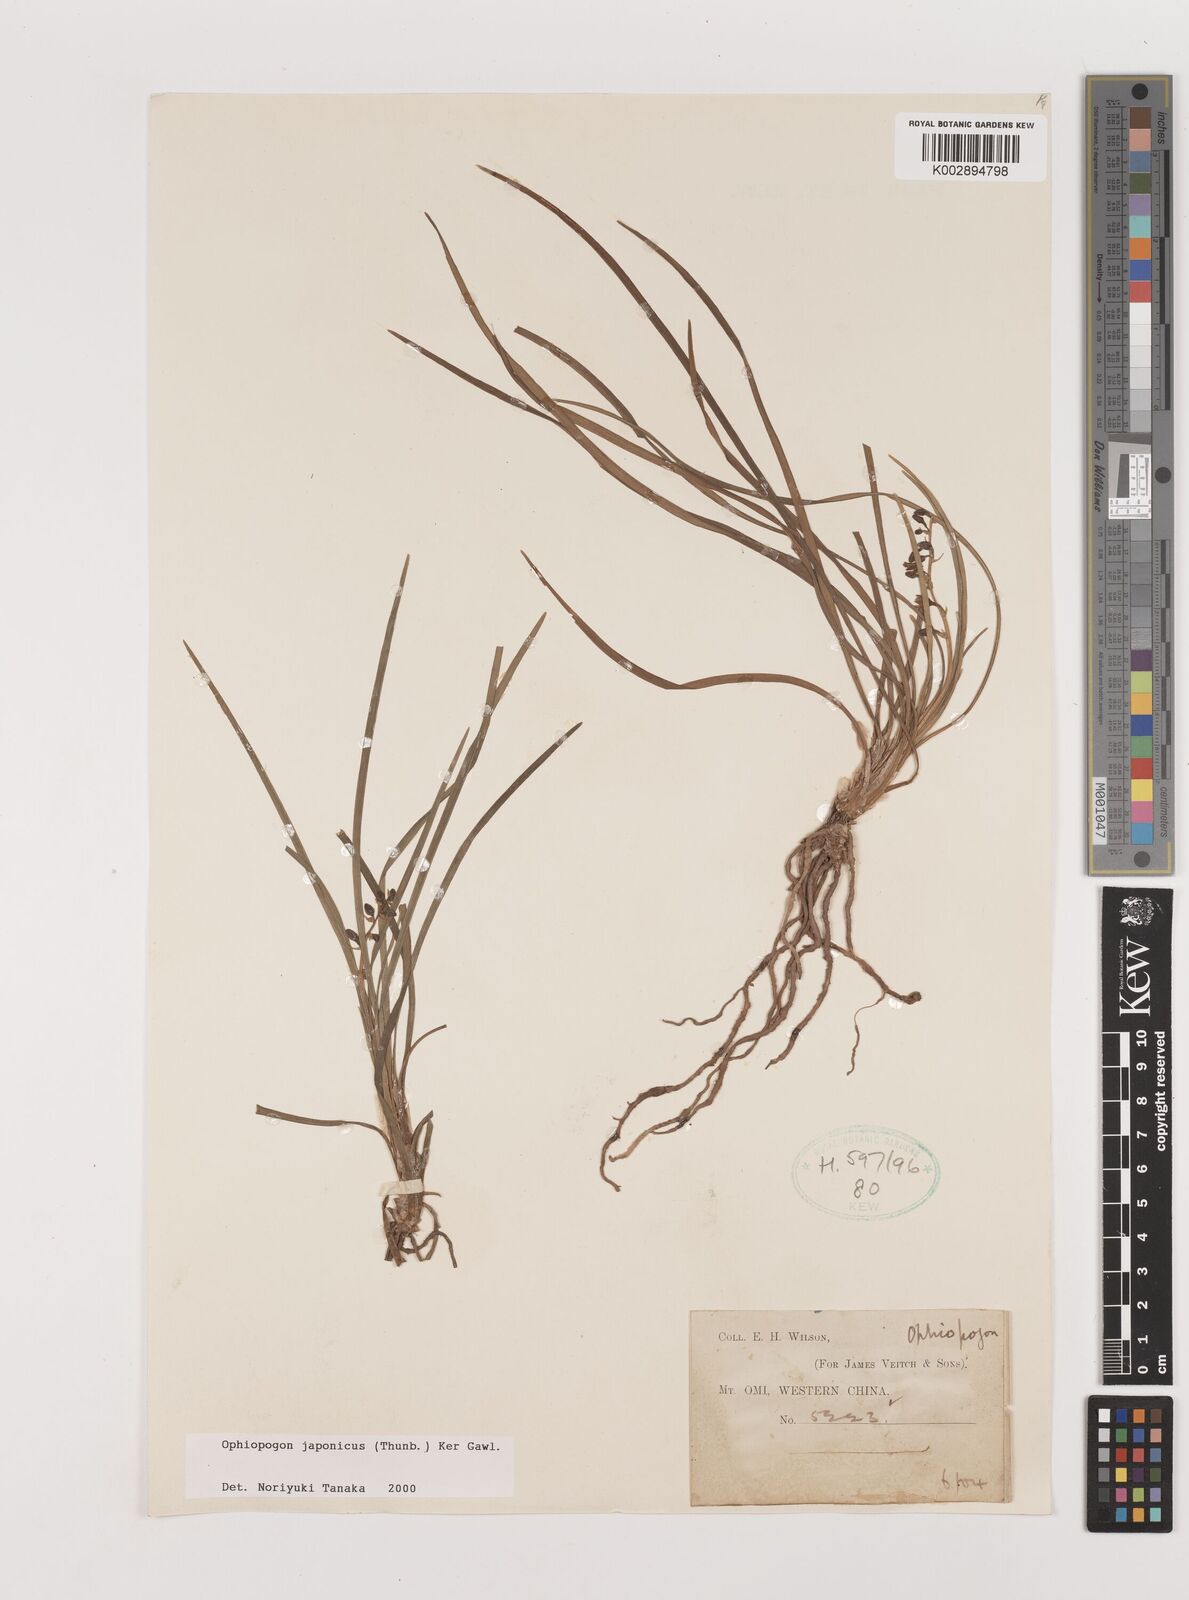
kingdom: Plantae
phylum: Tracheophyta
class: Liliopsida
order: Asparagales
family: Asparagaceae
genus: Ophiopogon
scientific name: Ophiopogon japonicus
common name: Dwarf lilyturf
